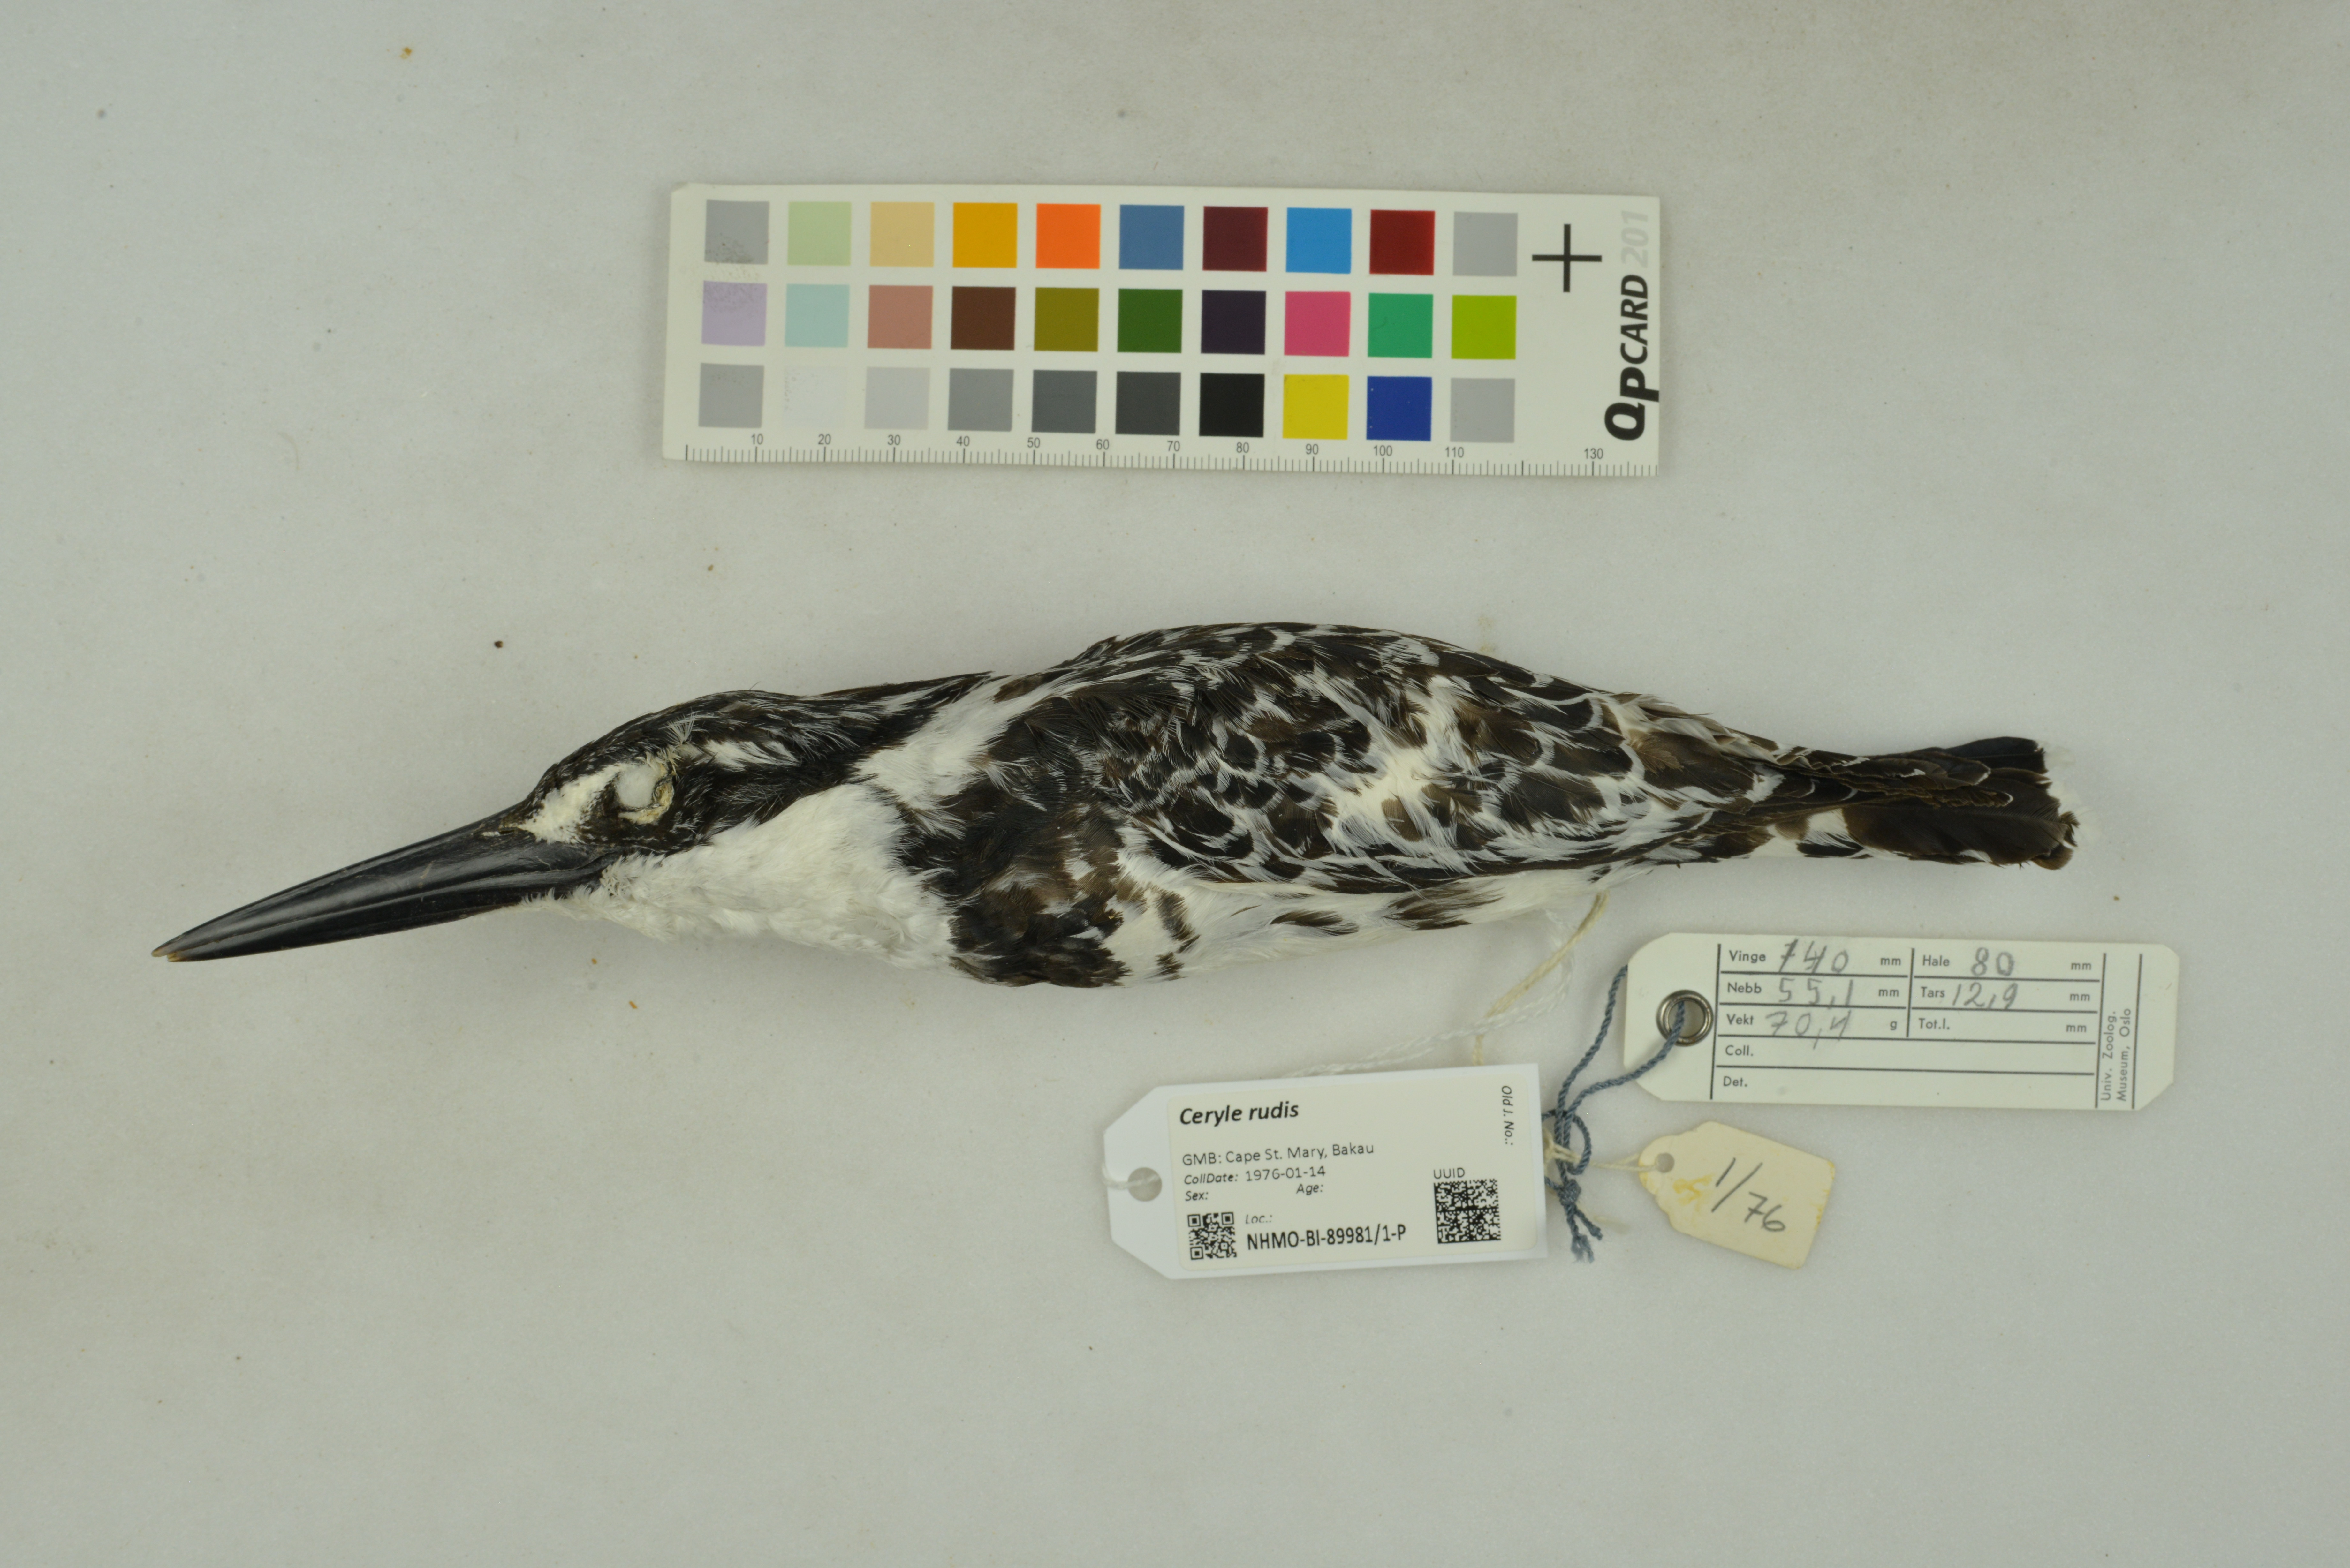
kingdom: Animalia
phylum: Chordata
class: Aves
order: Coraciiformes
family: Alcedinidae
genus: Ceryle
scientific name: Ceryle rudis
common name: Pied kingfisher
